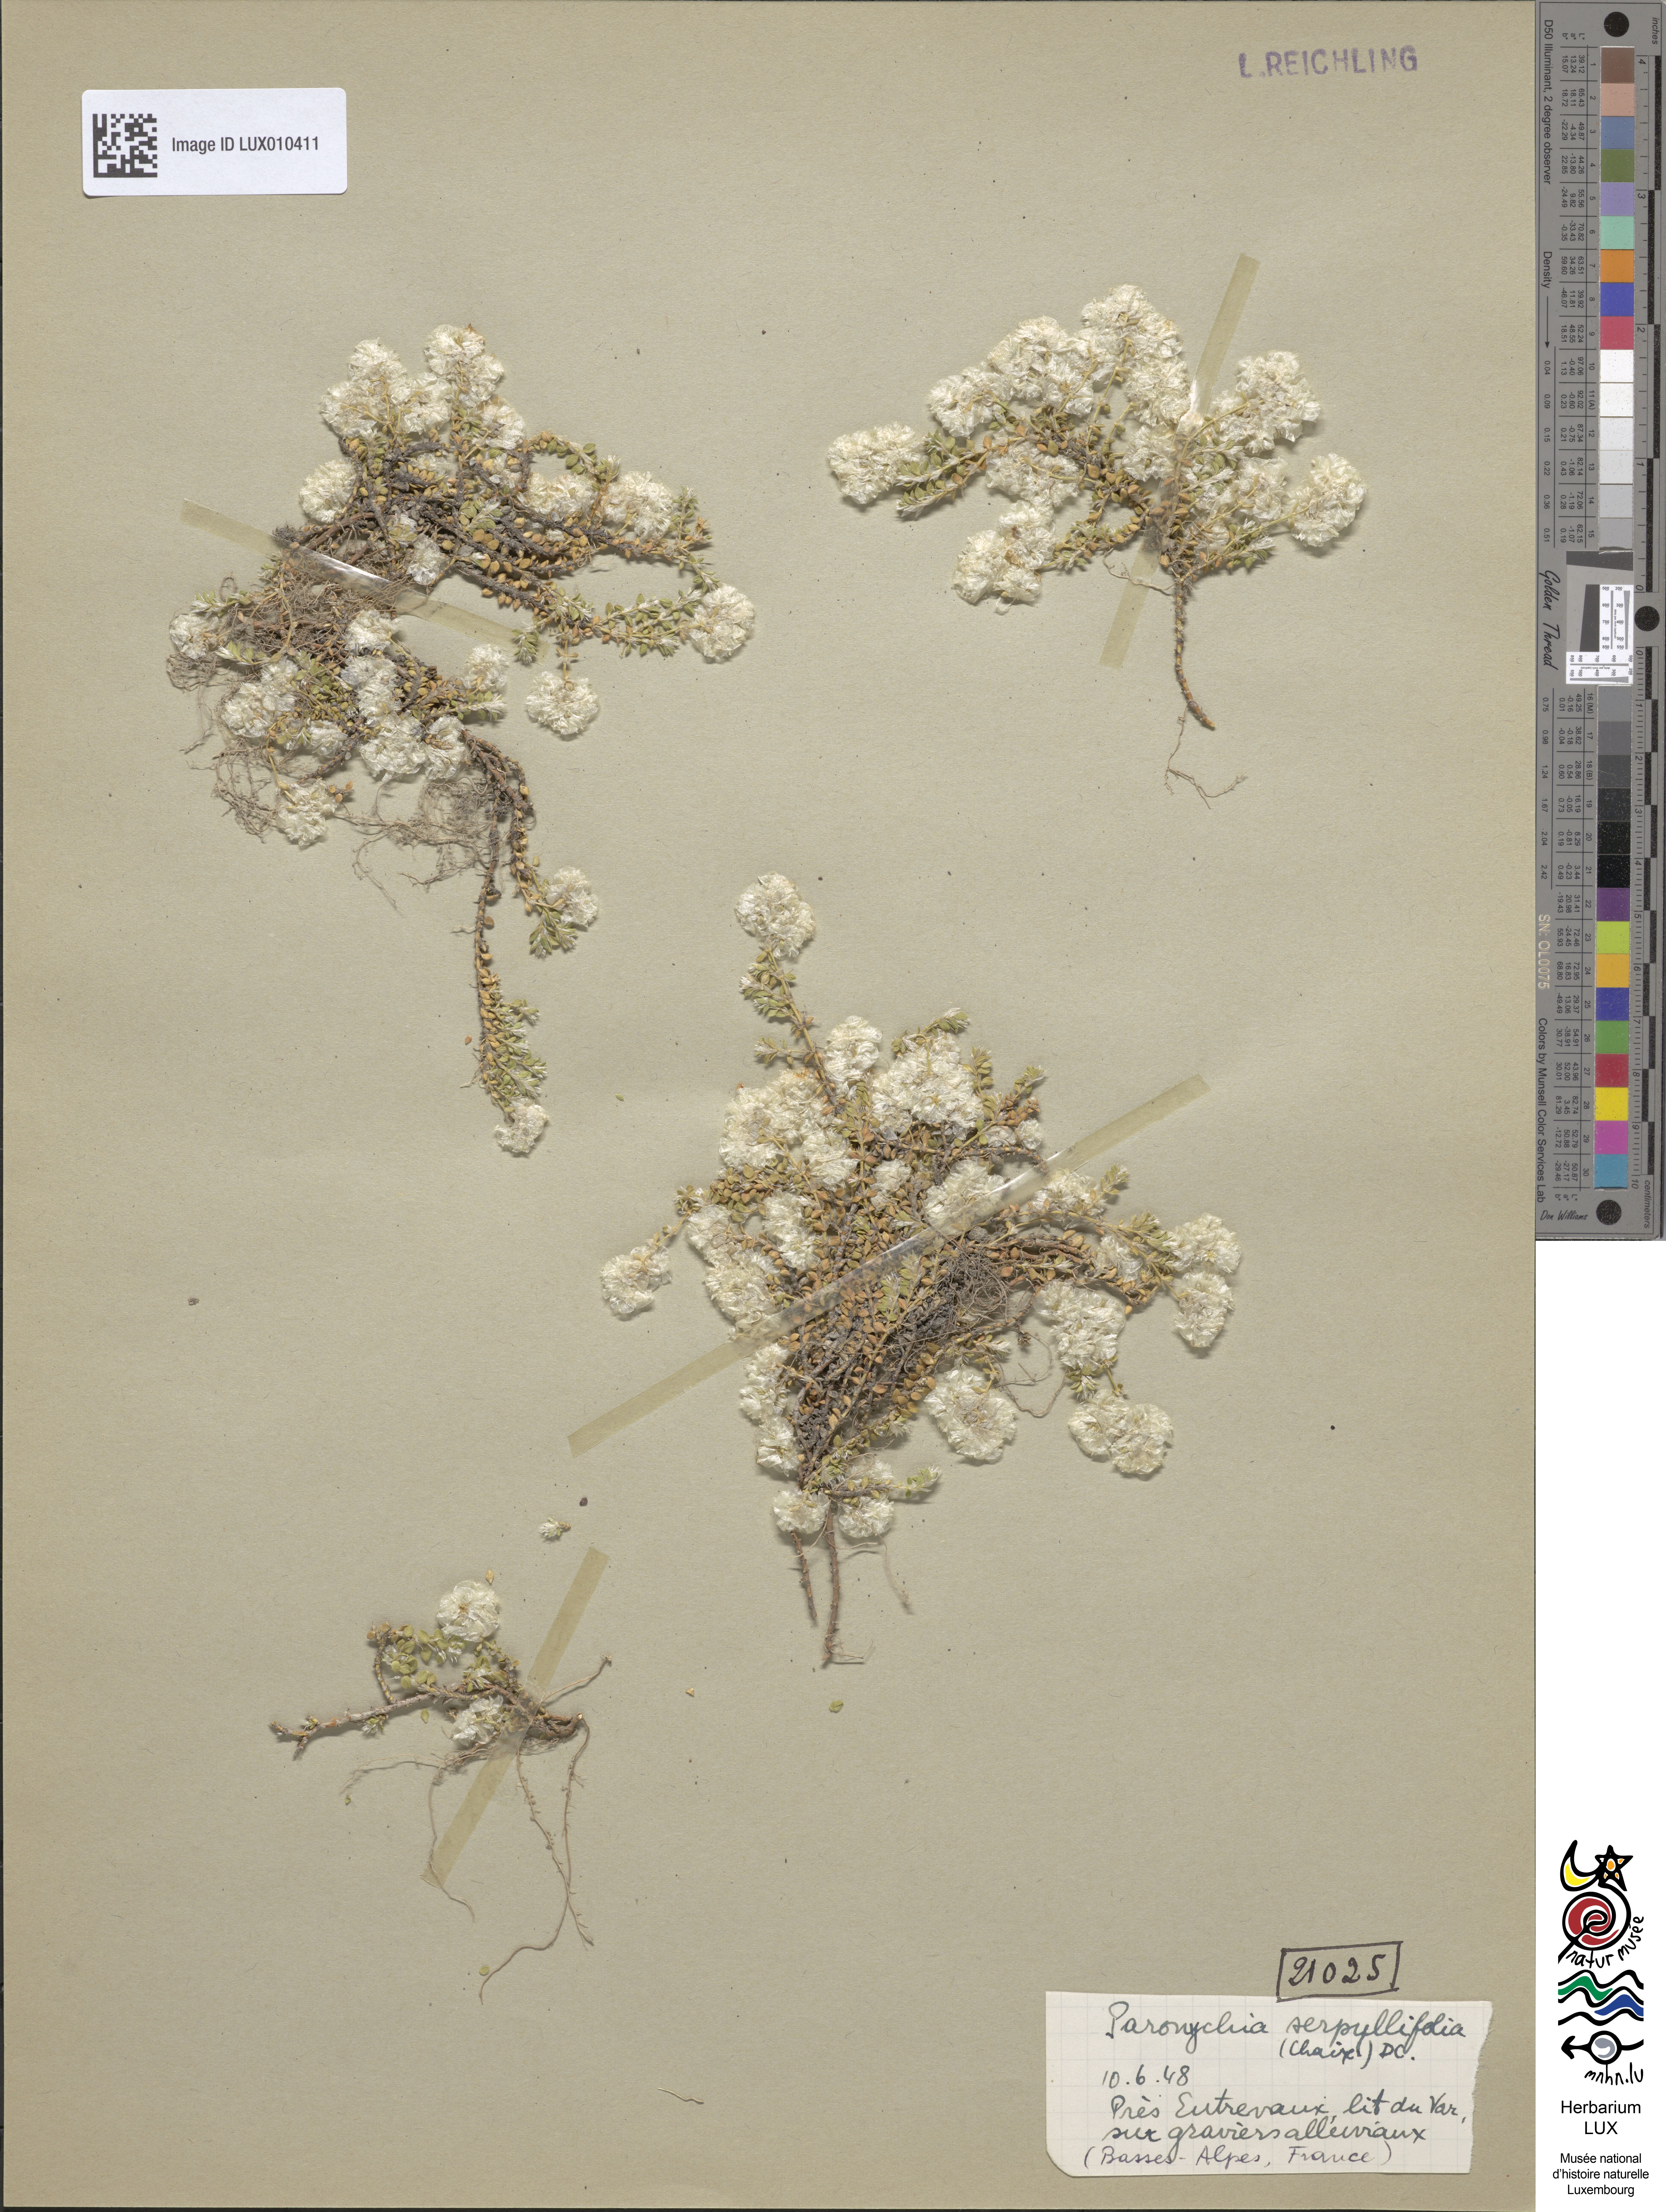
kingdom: Plantae
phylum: Tracheophyta
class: Magnoliopsida
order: Caryophyllales
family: Caryophyllaceae
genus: Paronychia
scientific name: Paronychia kapela
